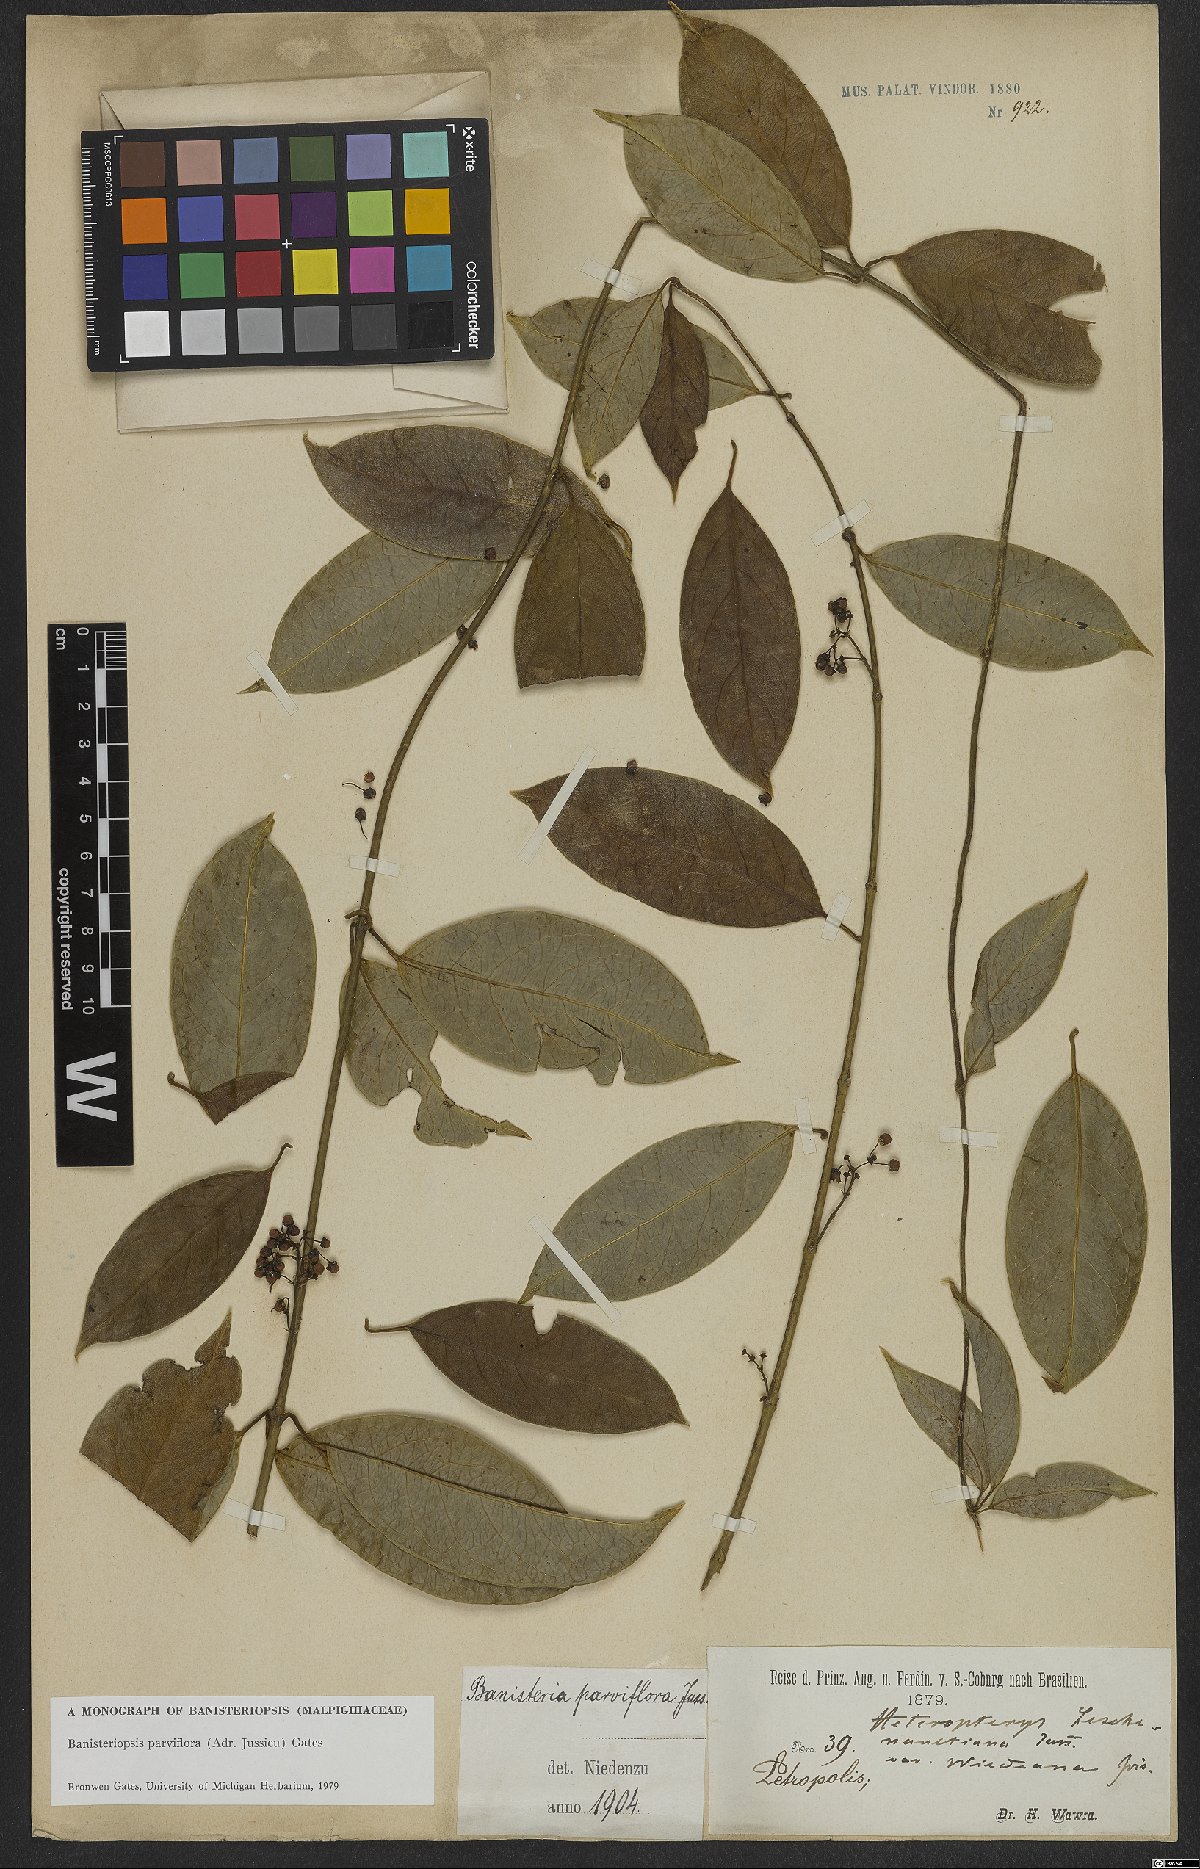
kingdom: Plantae
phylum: Tracheophyta
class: Magnoliopsida
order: Malpighiales
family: Malpighiaceae
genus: Banisteriopsis
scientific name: Banisteriopsis parviflora
